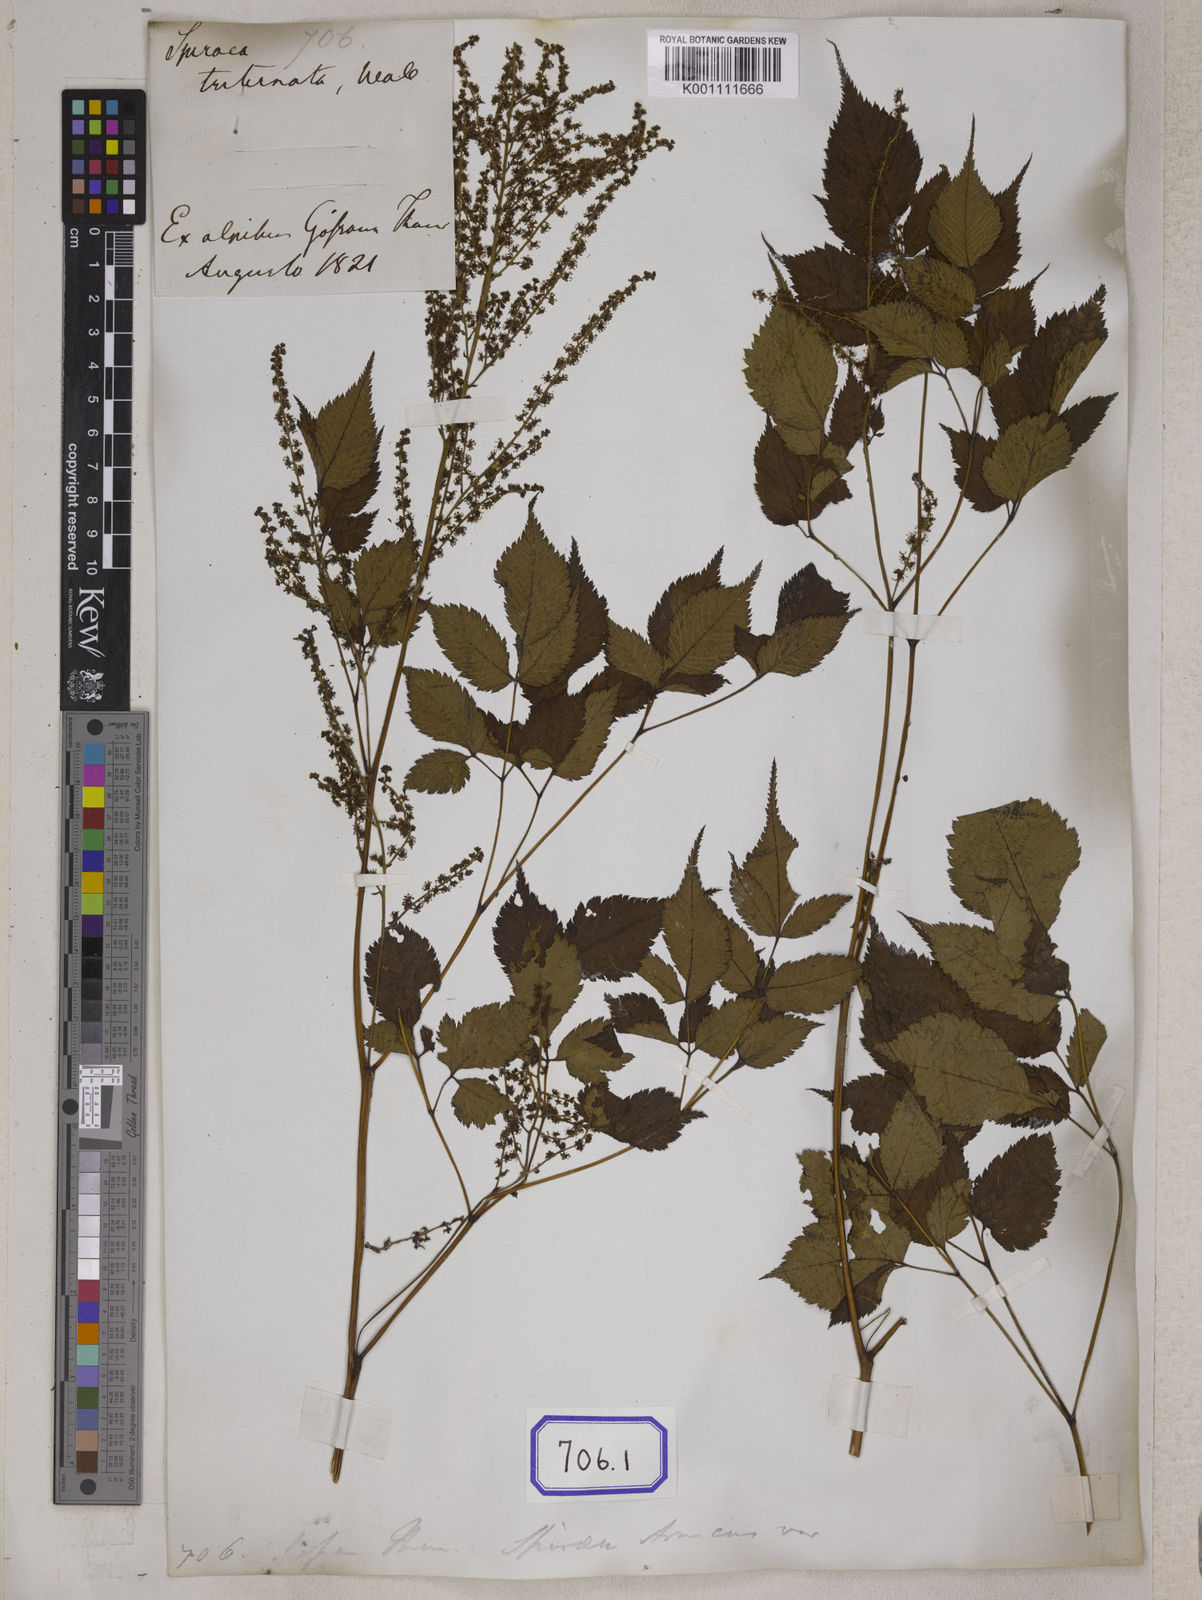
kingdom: Plantae
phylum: Tracheophyta
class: Magnoliopsida
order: Rosales
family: Rosaceae
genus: Aruncus
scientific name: Aruncus sylvester
